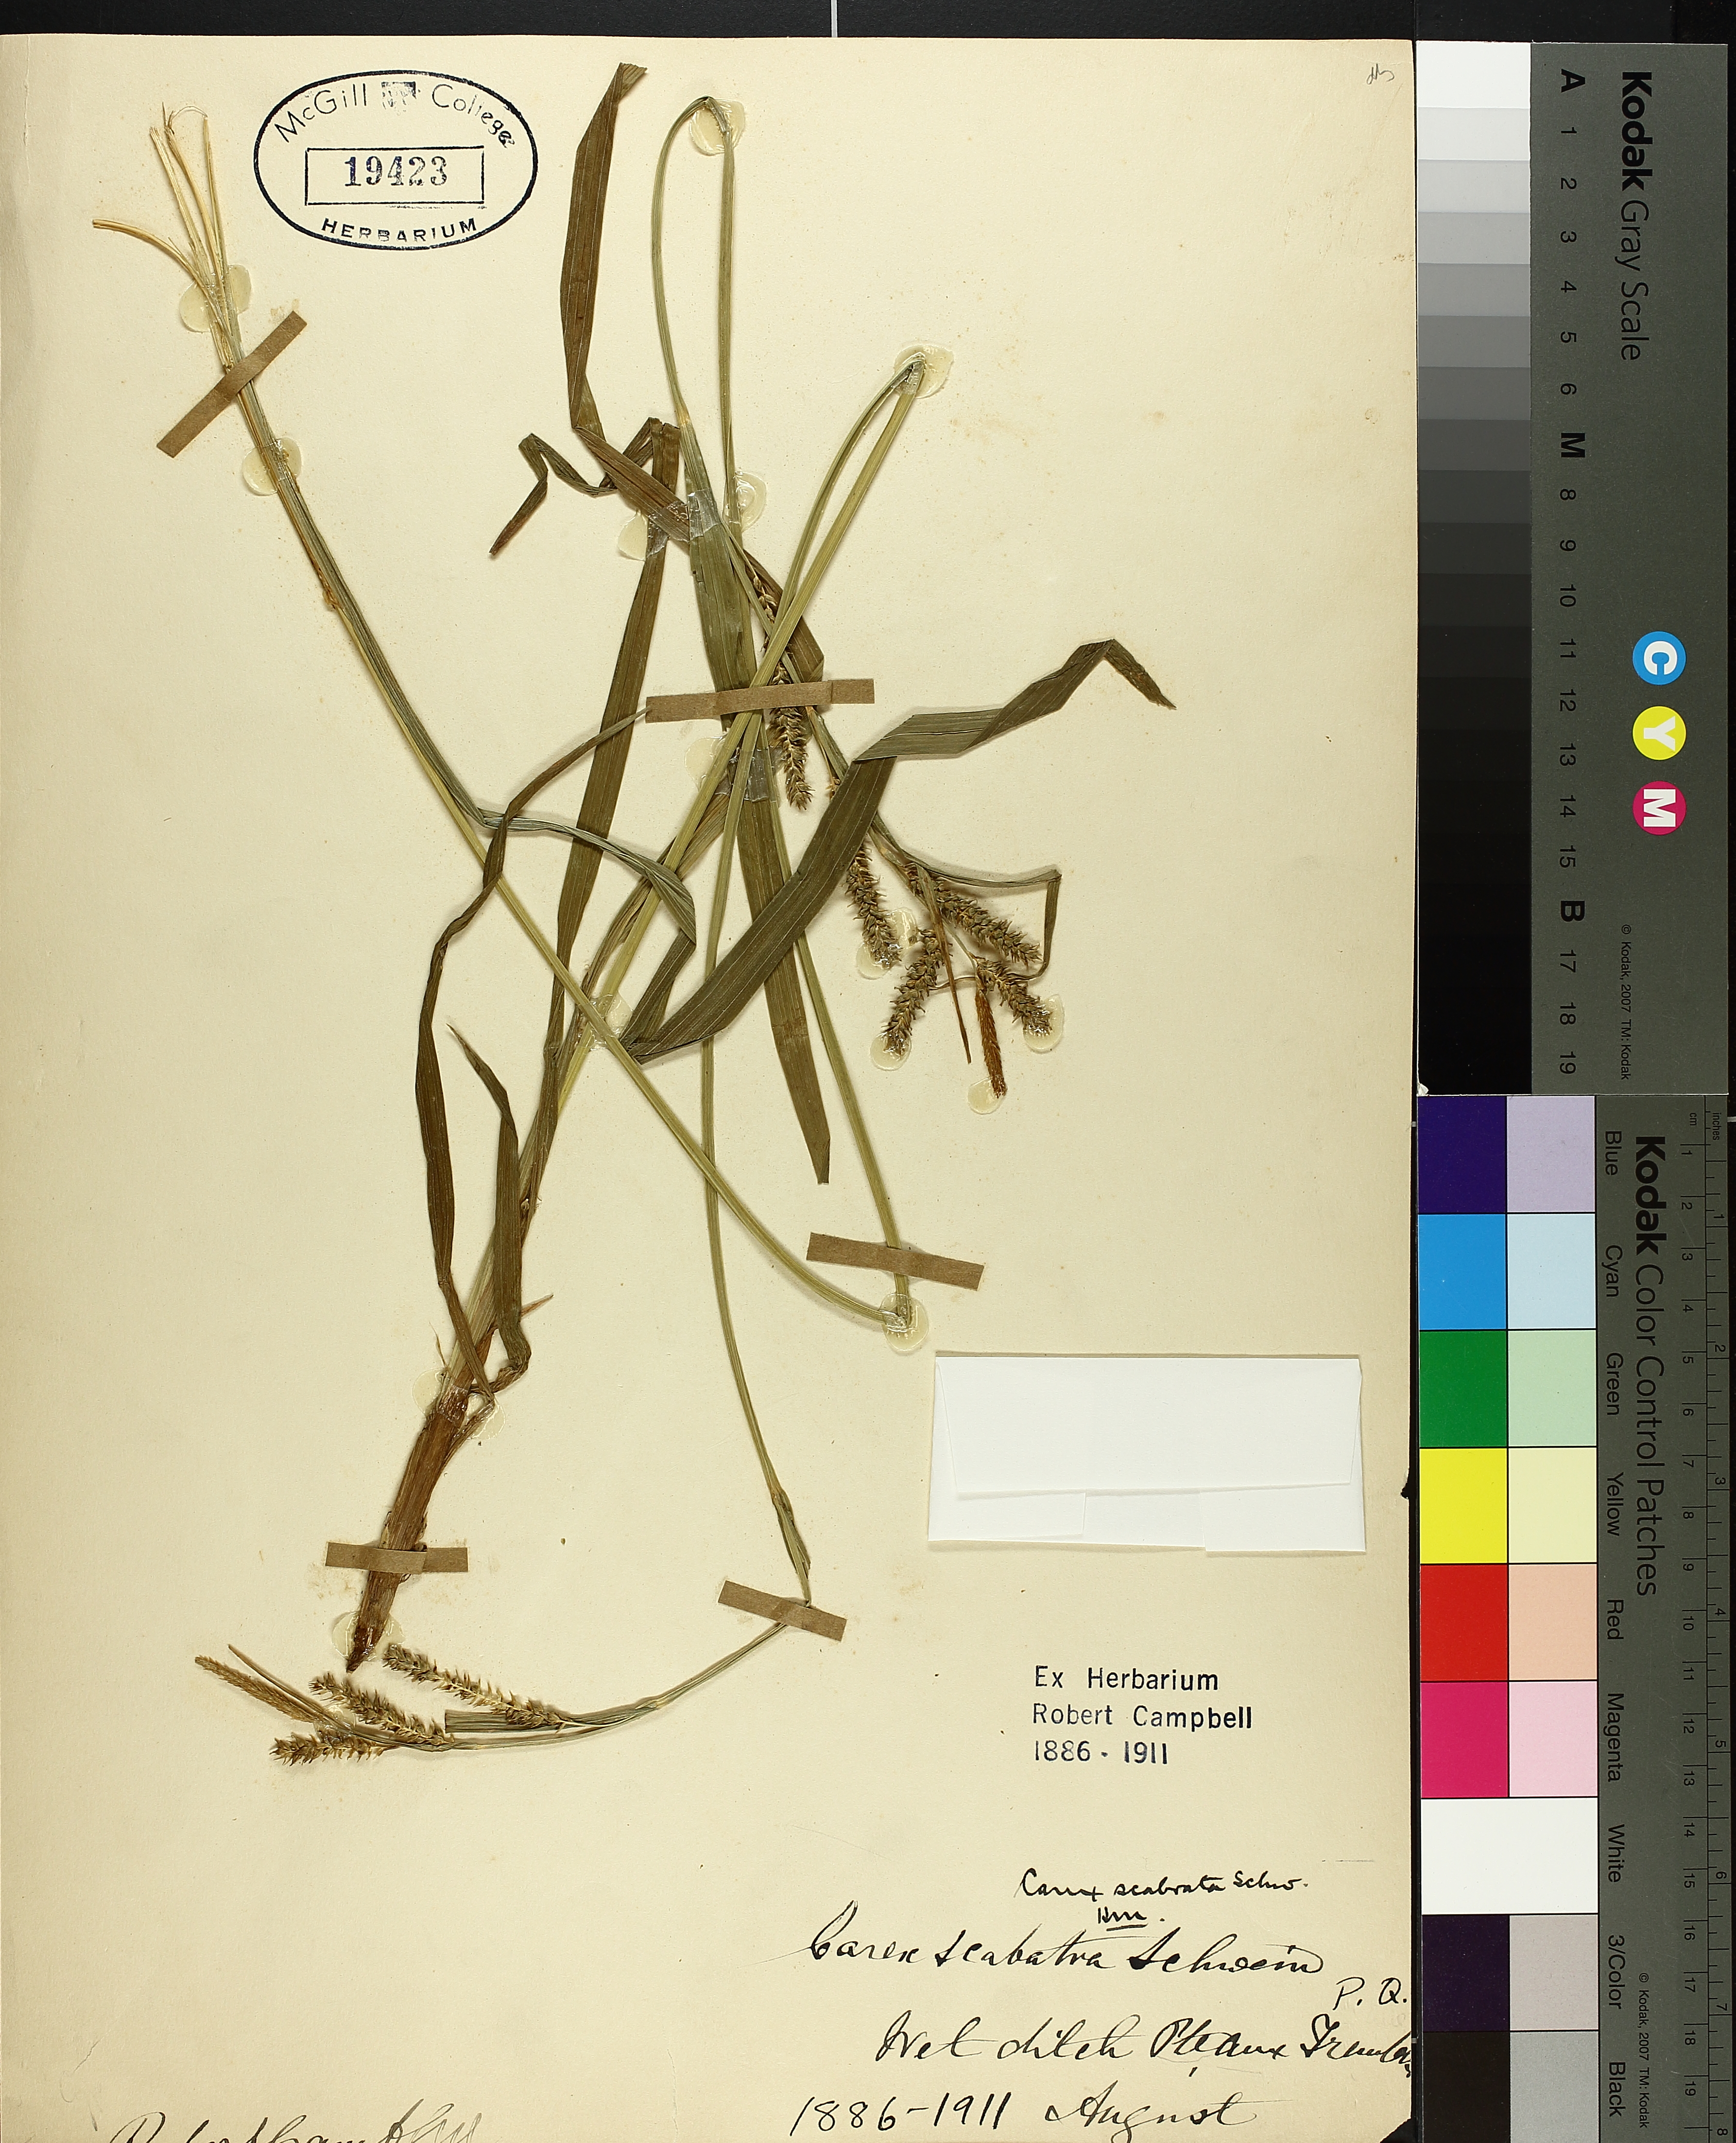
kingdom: Plantae
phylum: Tracheophyta
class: Liliopsida
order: Poales
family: Cyperaceae
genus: Carex
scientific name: Carex saxatilis
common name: Russet sedge
